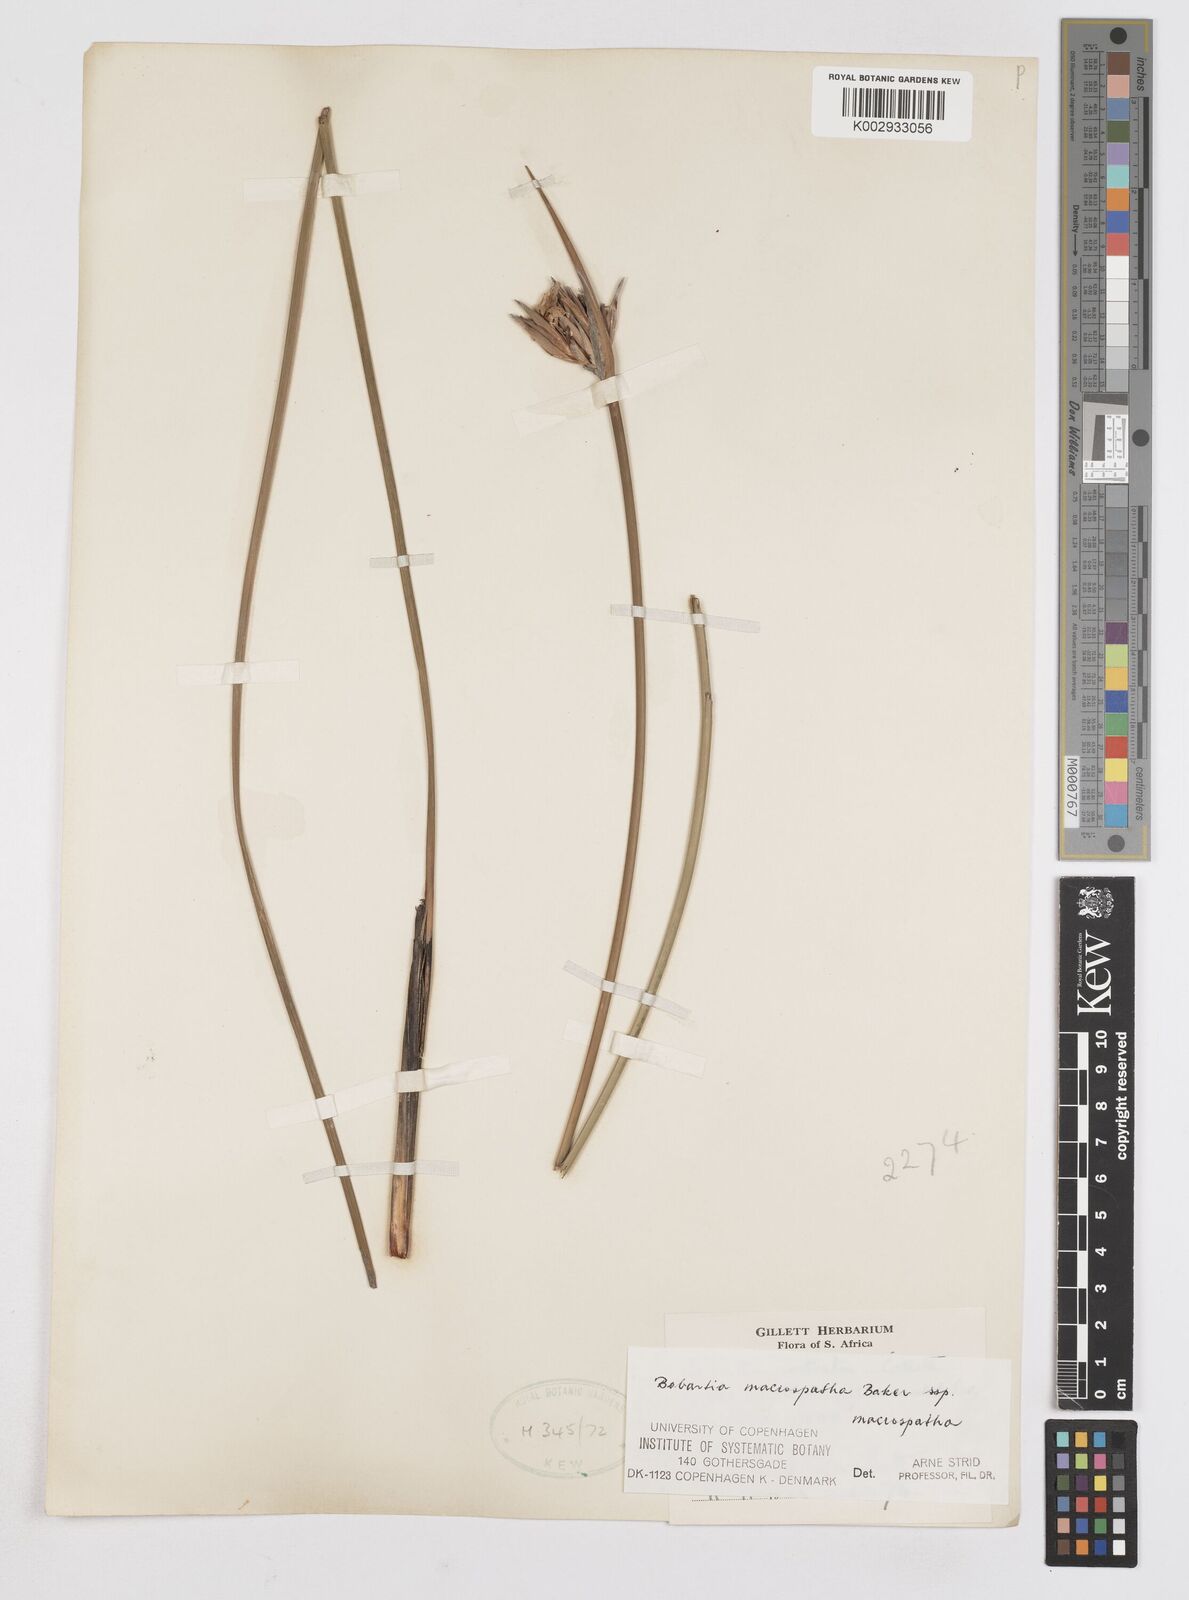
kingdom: Plantae
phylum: Tracheophyta
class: Liliopsida
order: Asparagales
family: Iridaceae
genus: Bobartia
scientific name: Bobartia macrospatha
